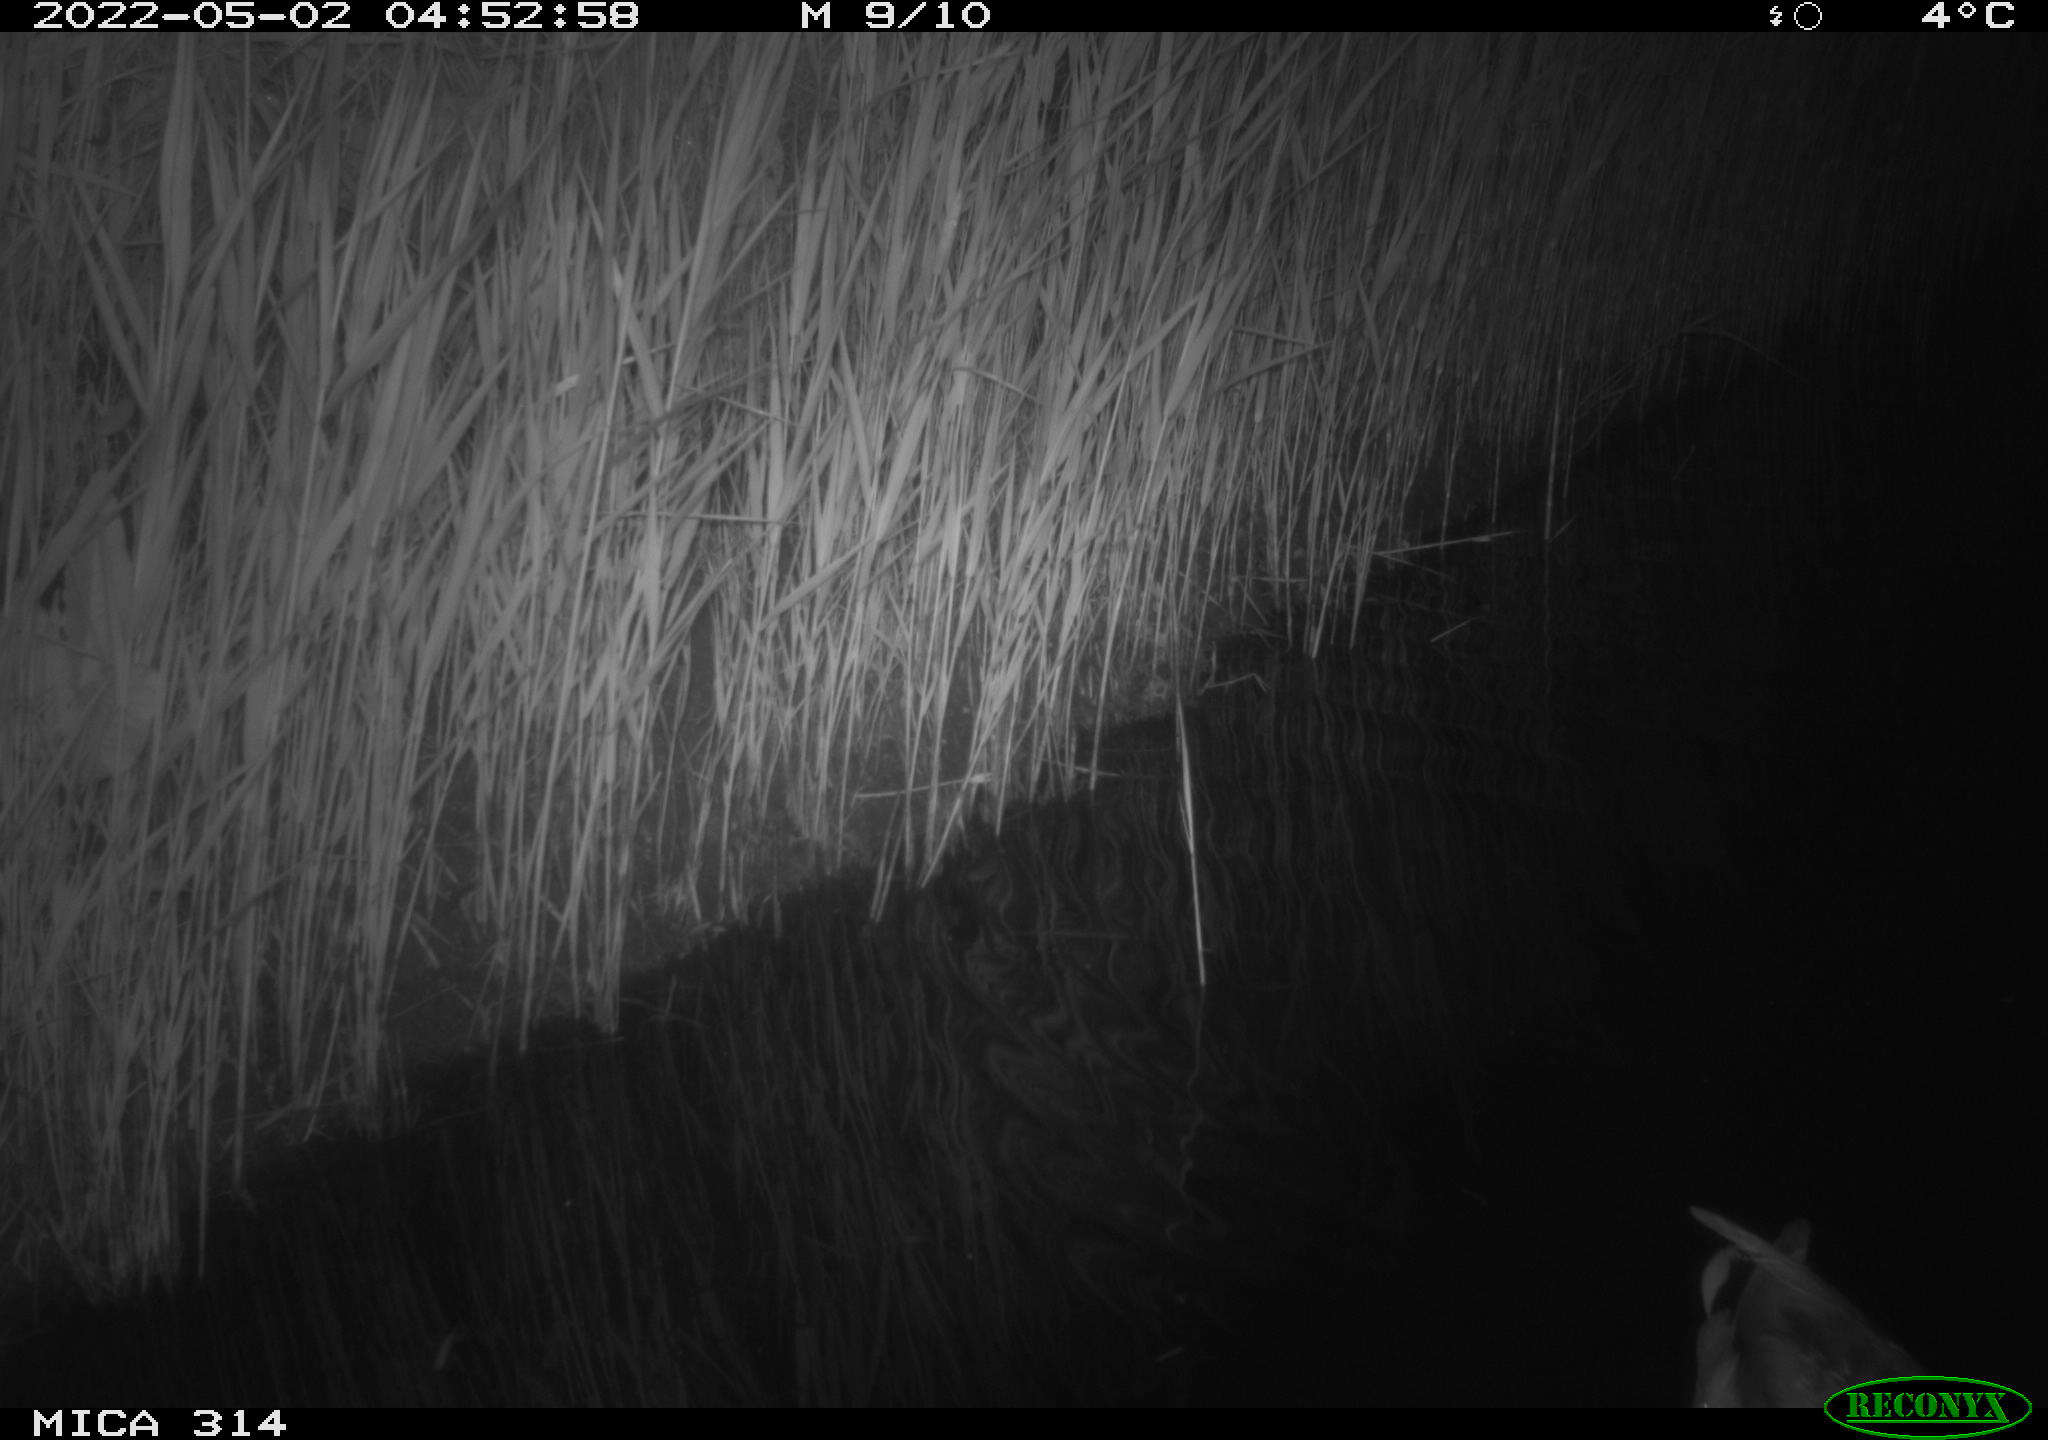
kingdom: Animalia
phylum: Chordata
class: Aves
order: Anseriformes
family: Anatidae
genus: Anas
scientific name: Anas platyrhynchos
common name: Mallard
